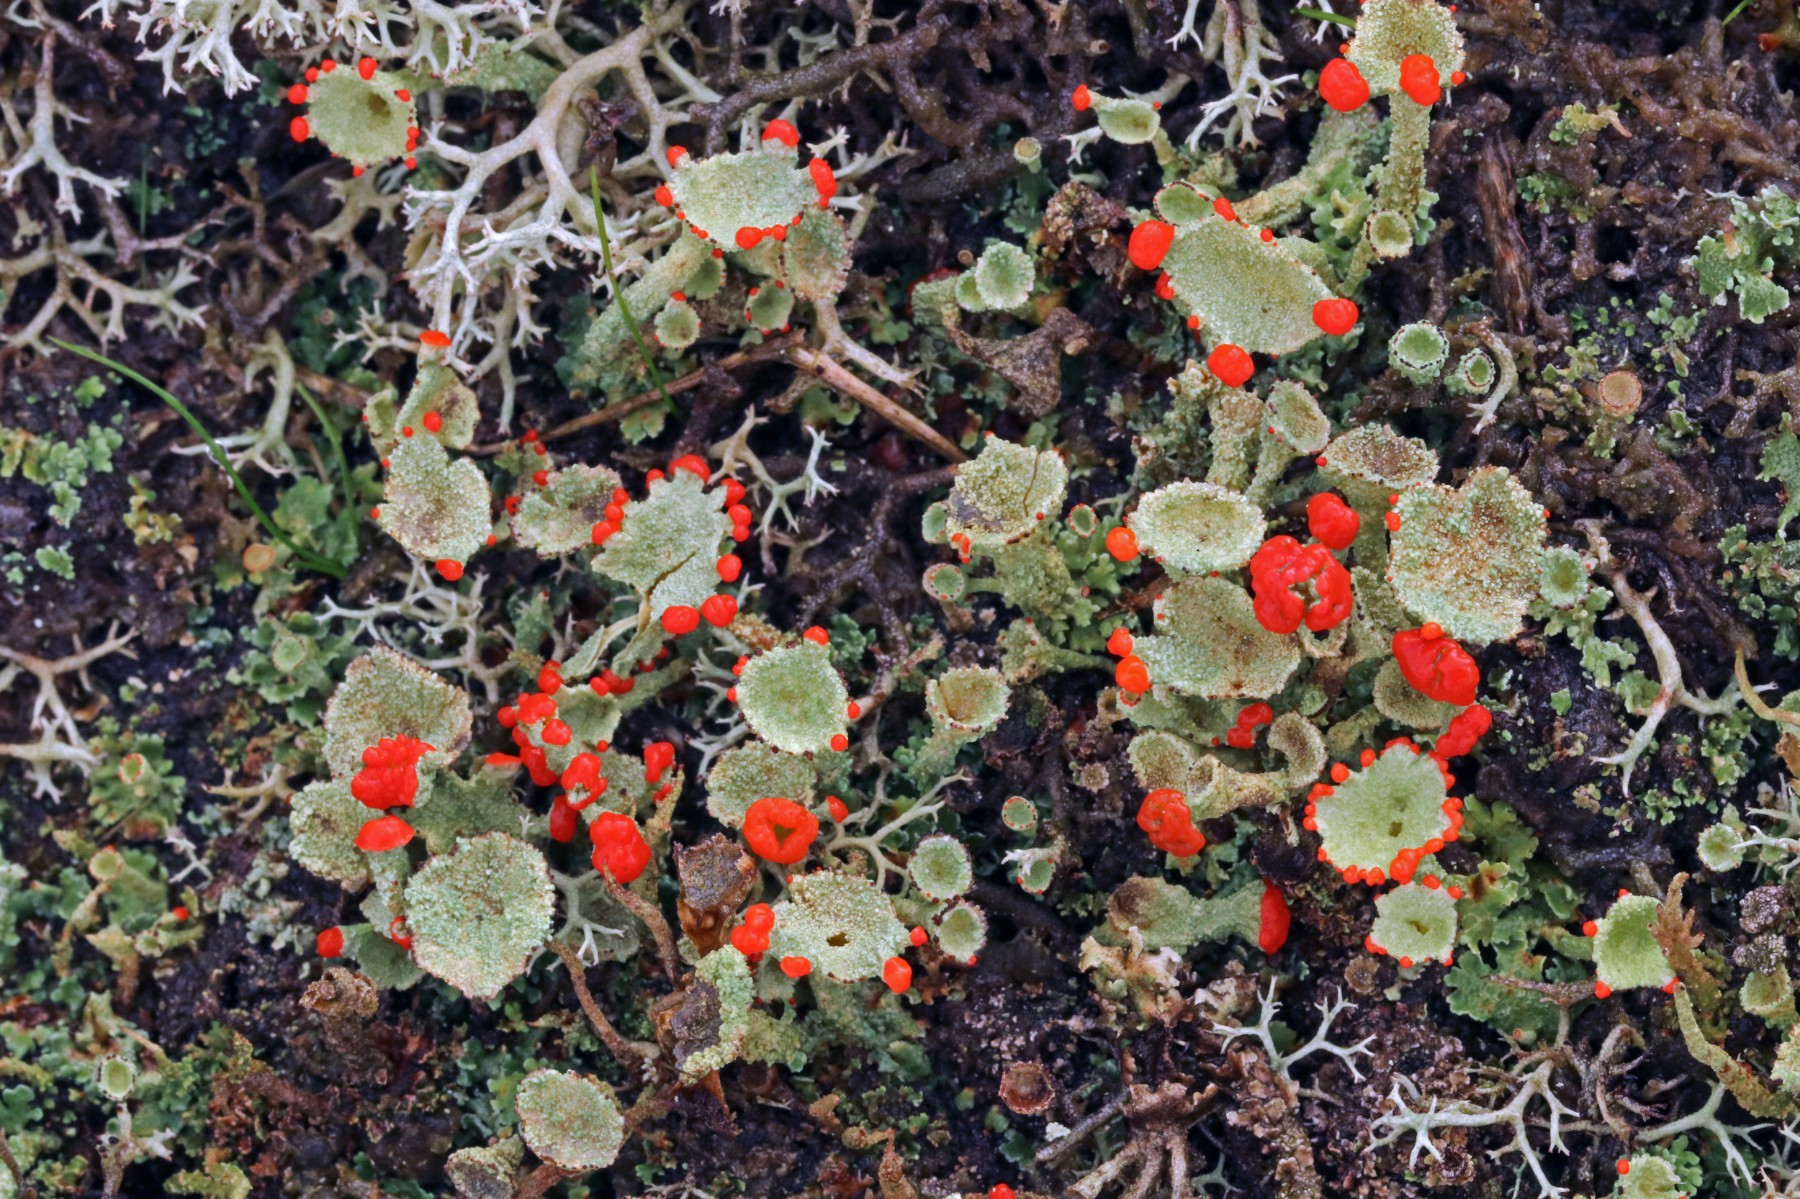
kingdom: Fungi
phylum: Ascomycota
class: Lecanoromycetes
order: Lecanorales
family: Cladoniaceae
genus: Cladonia
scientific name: Cladonia diversa
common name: rød bægerlav
